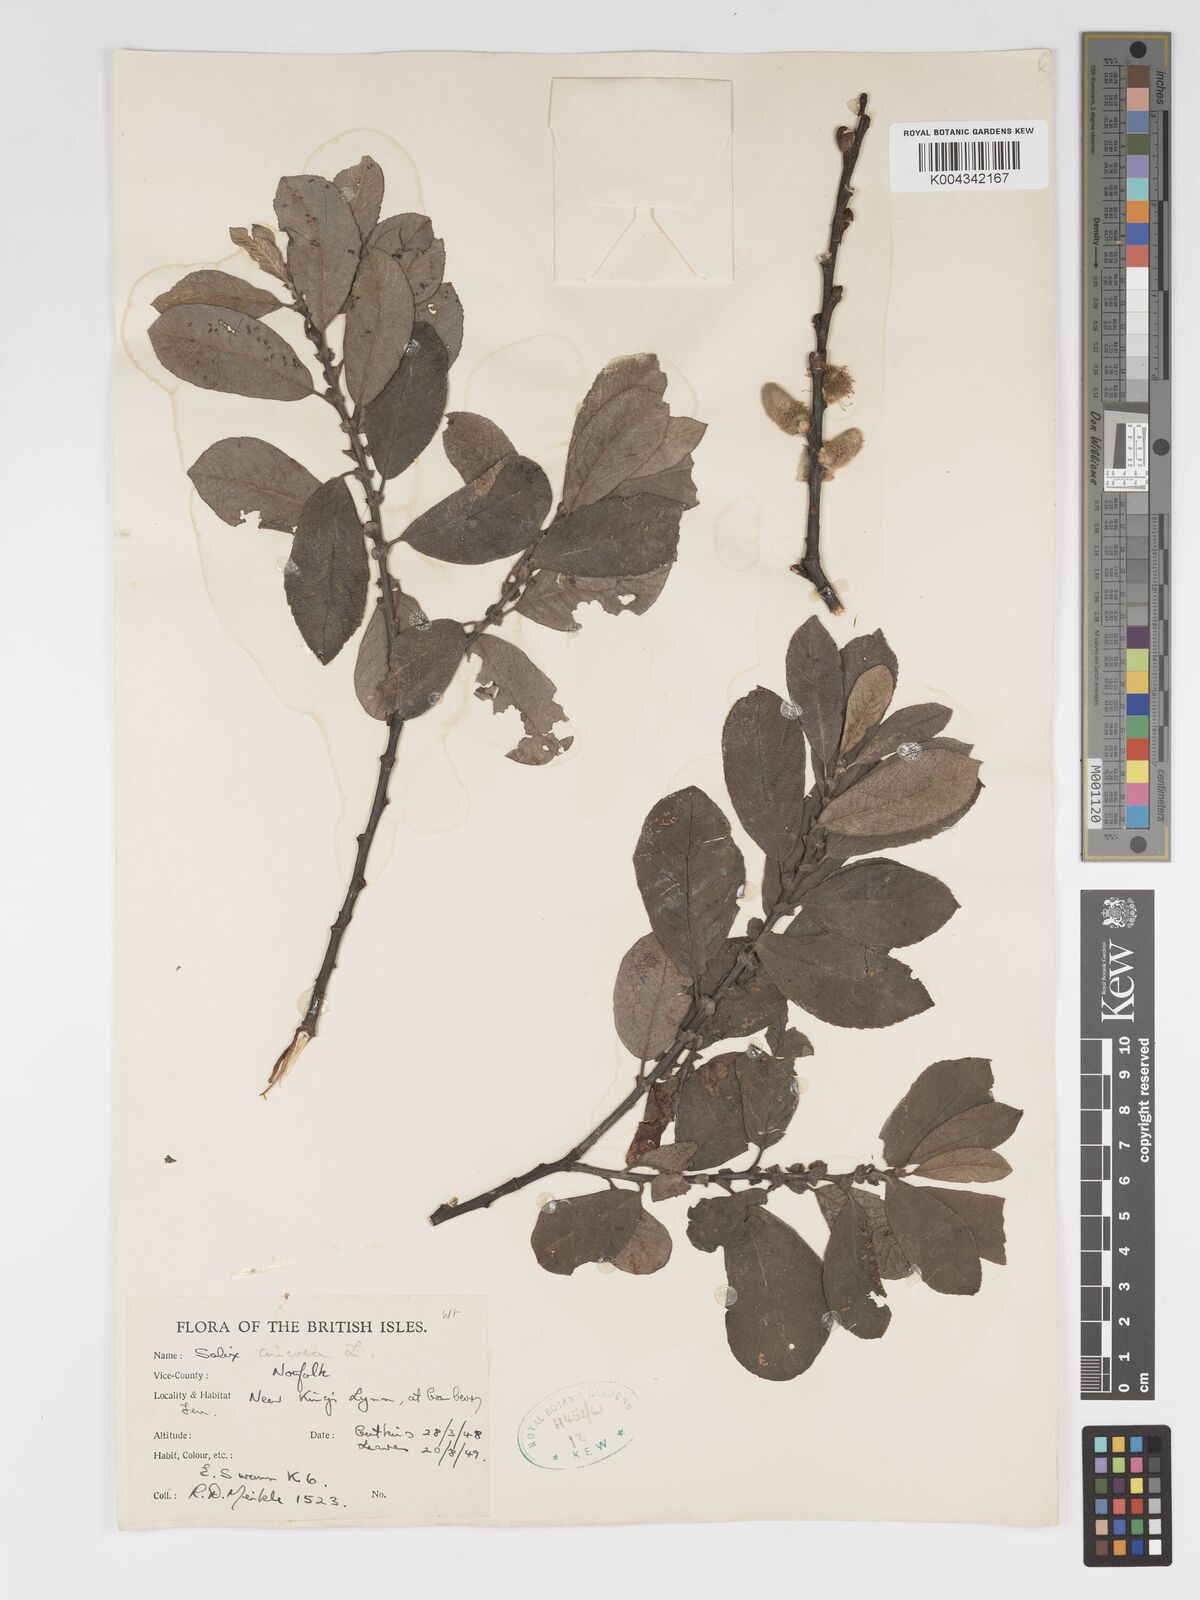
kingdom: Plantae
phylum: Tracheophyta
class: Magnoliopsida
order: Malpighiales
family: Salicaceae
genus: Salix
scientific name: Salix
